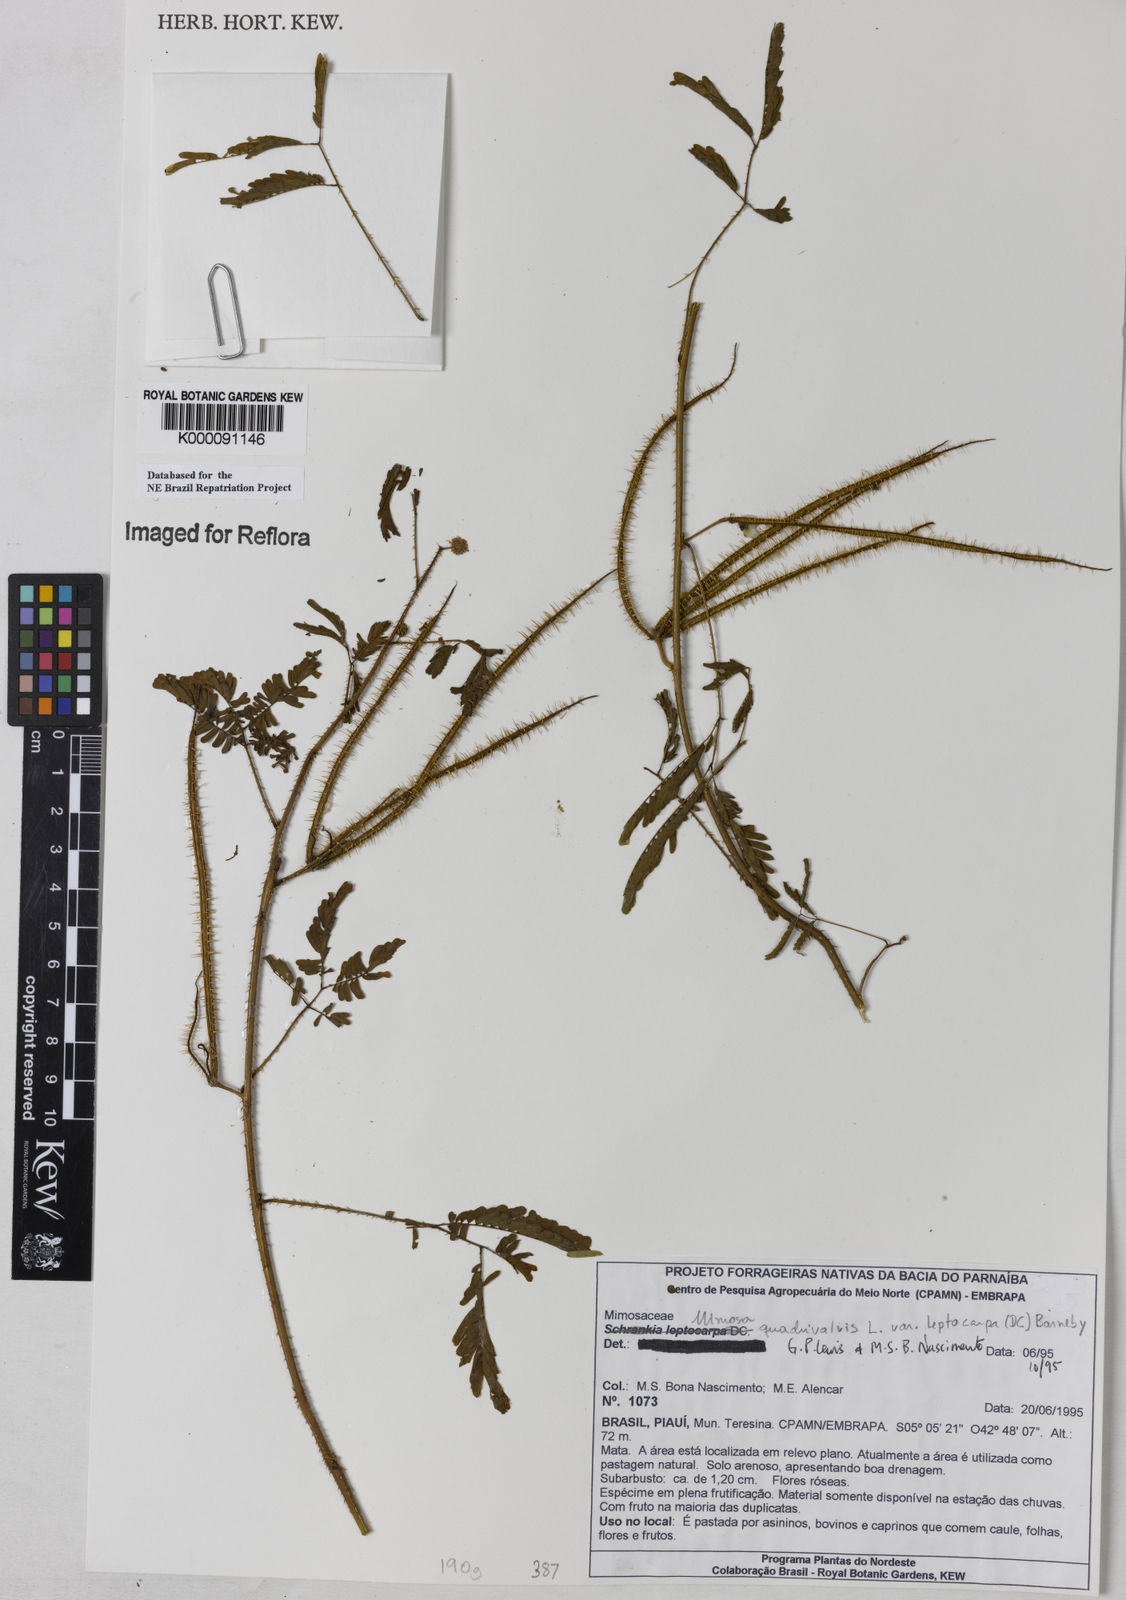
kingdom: Plantae
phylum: Tracheophyta
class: Magnoliopsida
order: Fabales
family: Fabaceae
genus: Mimosa
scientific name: Mimosa candollei
